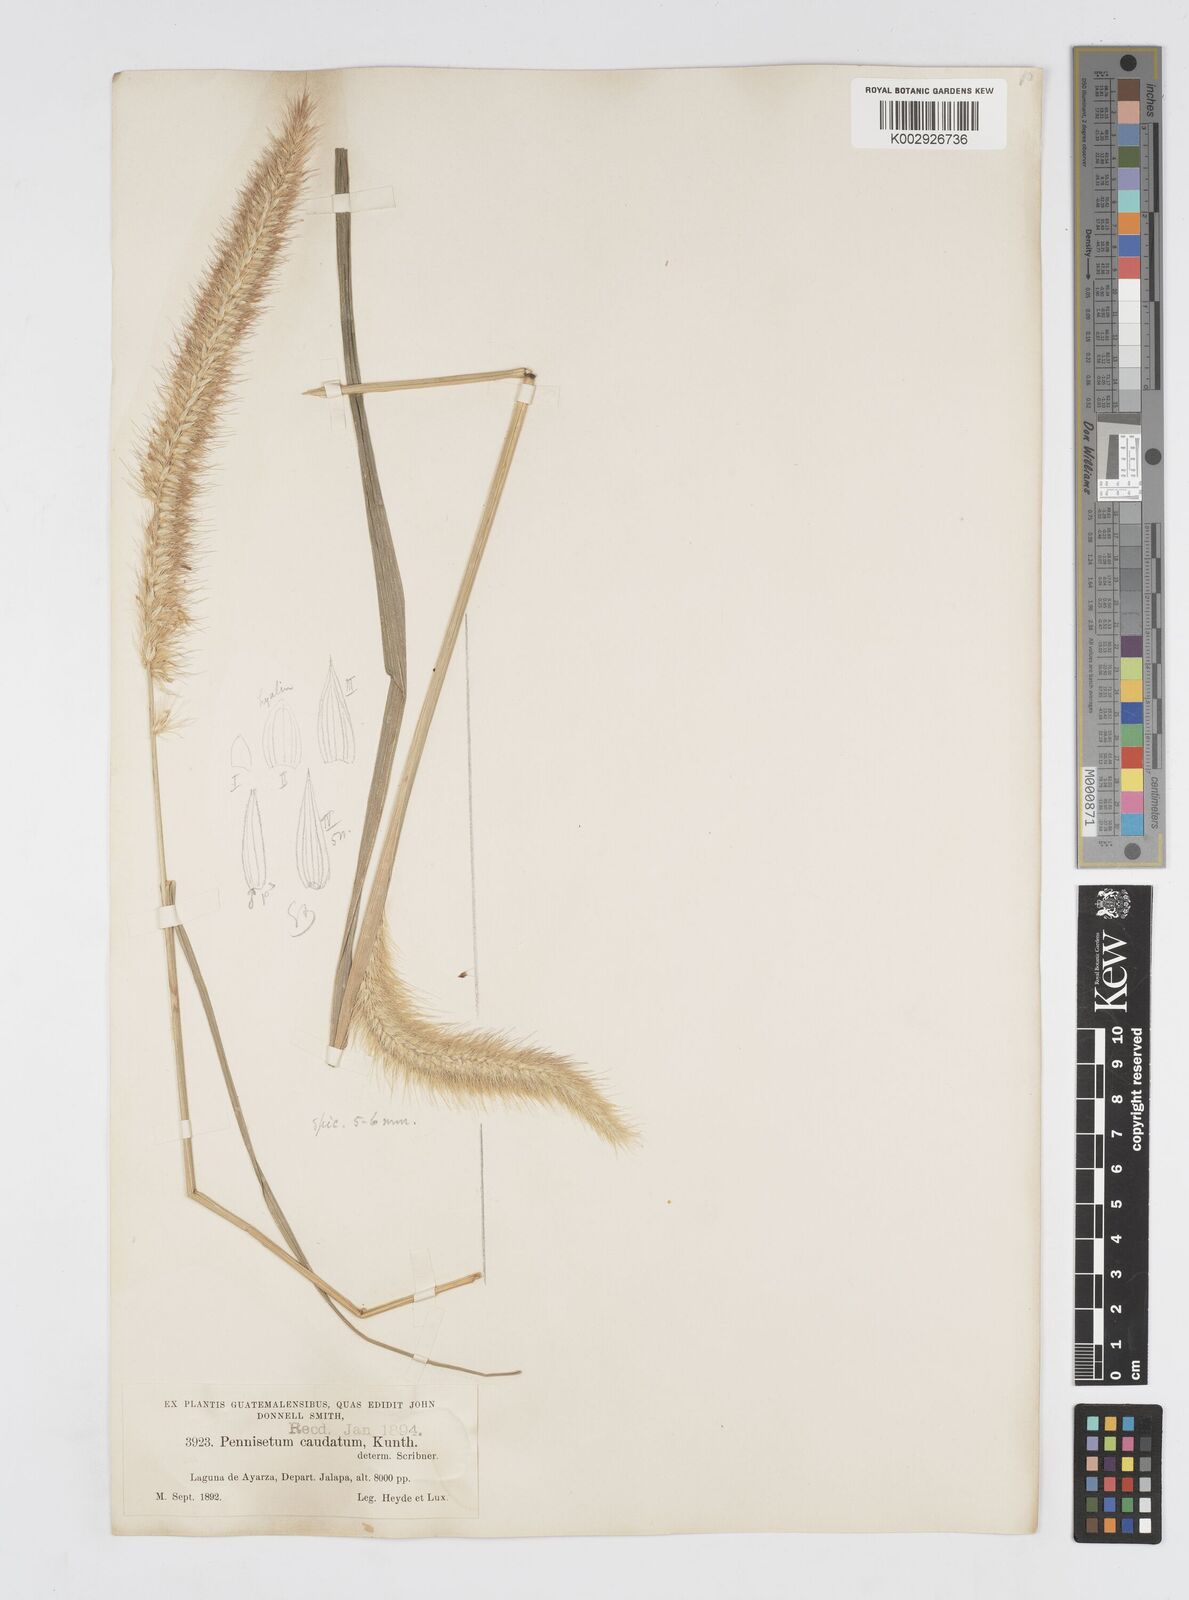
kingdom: Plantae
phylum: Tracheophyta
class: Liliopsida
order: Poales
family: Poaceae
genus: Cenchrus
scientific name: Cenchrus complanatus
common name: Nicaraguan fountaingrass
